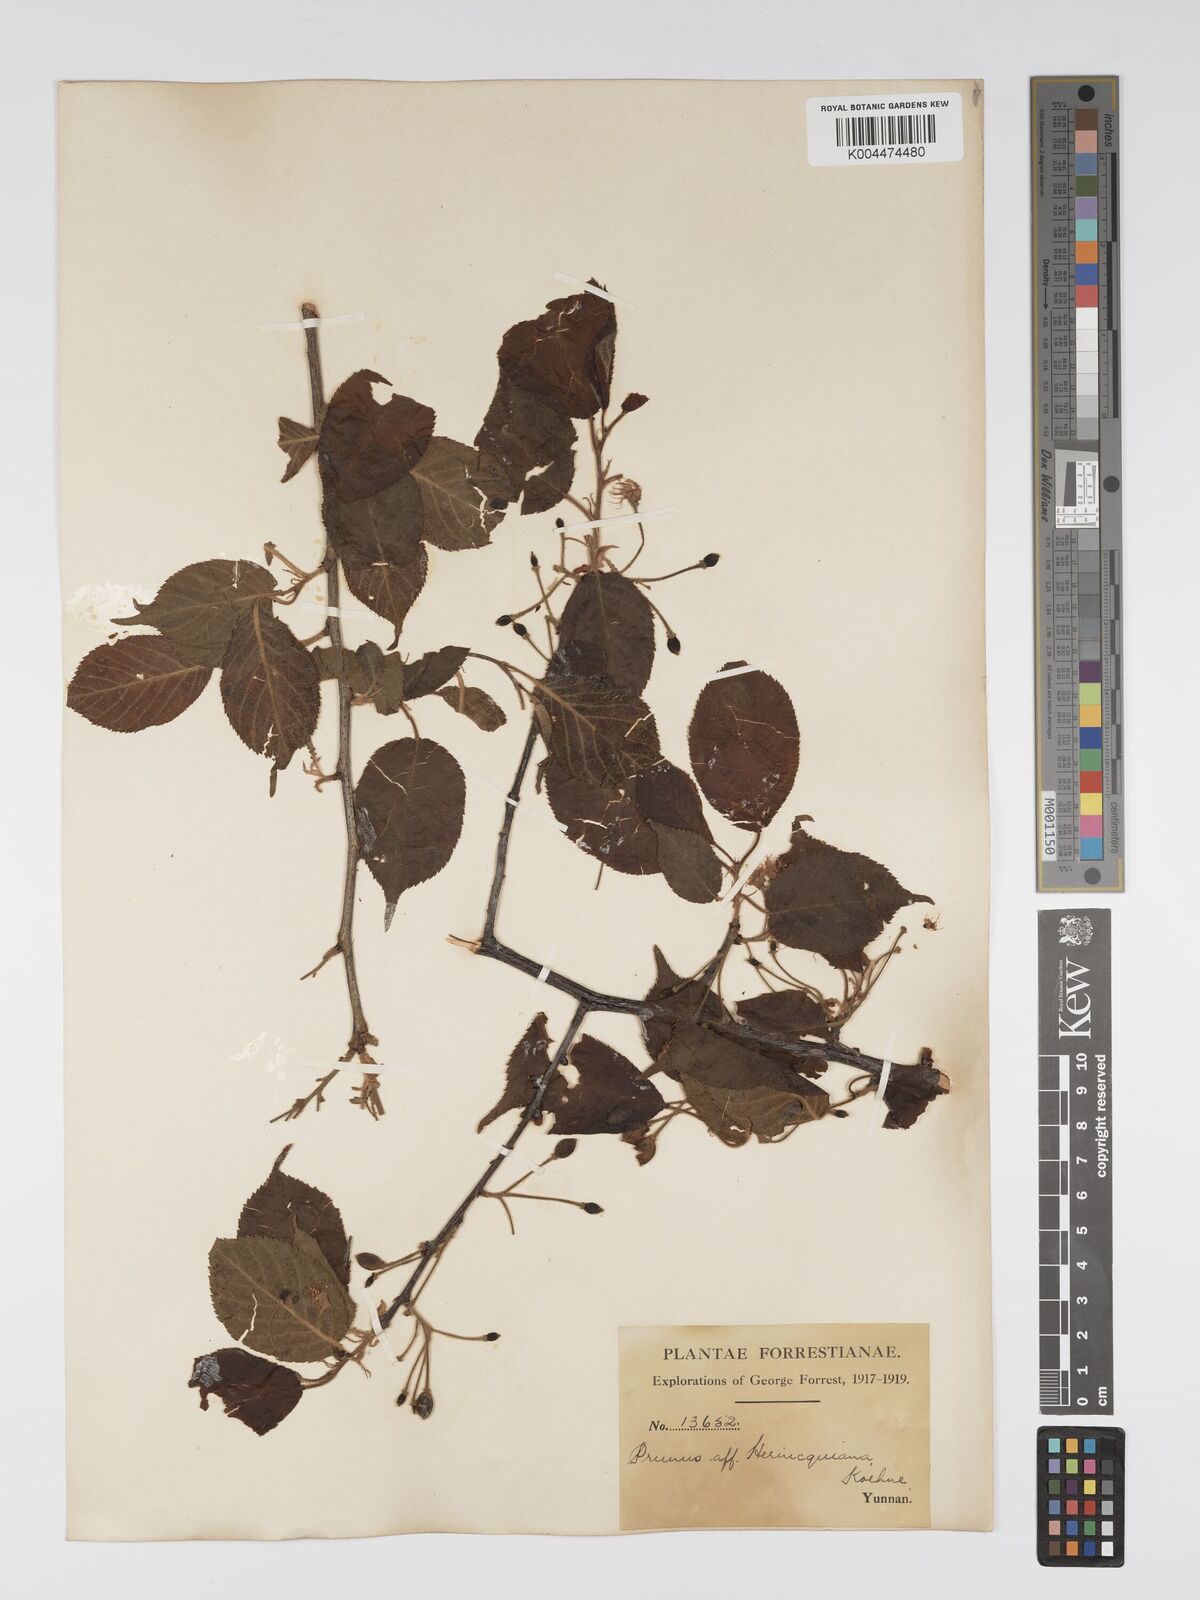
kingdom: Plantae
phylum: Tracheophyta
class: Magnoliopsida
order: Rosales
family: Rosaceae
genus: Prunus
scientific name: Prunus
